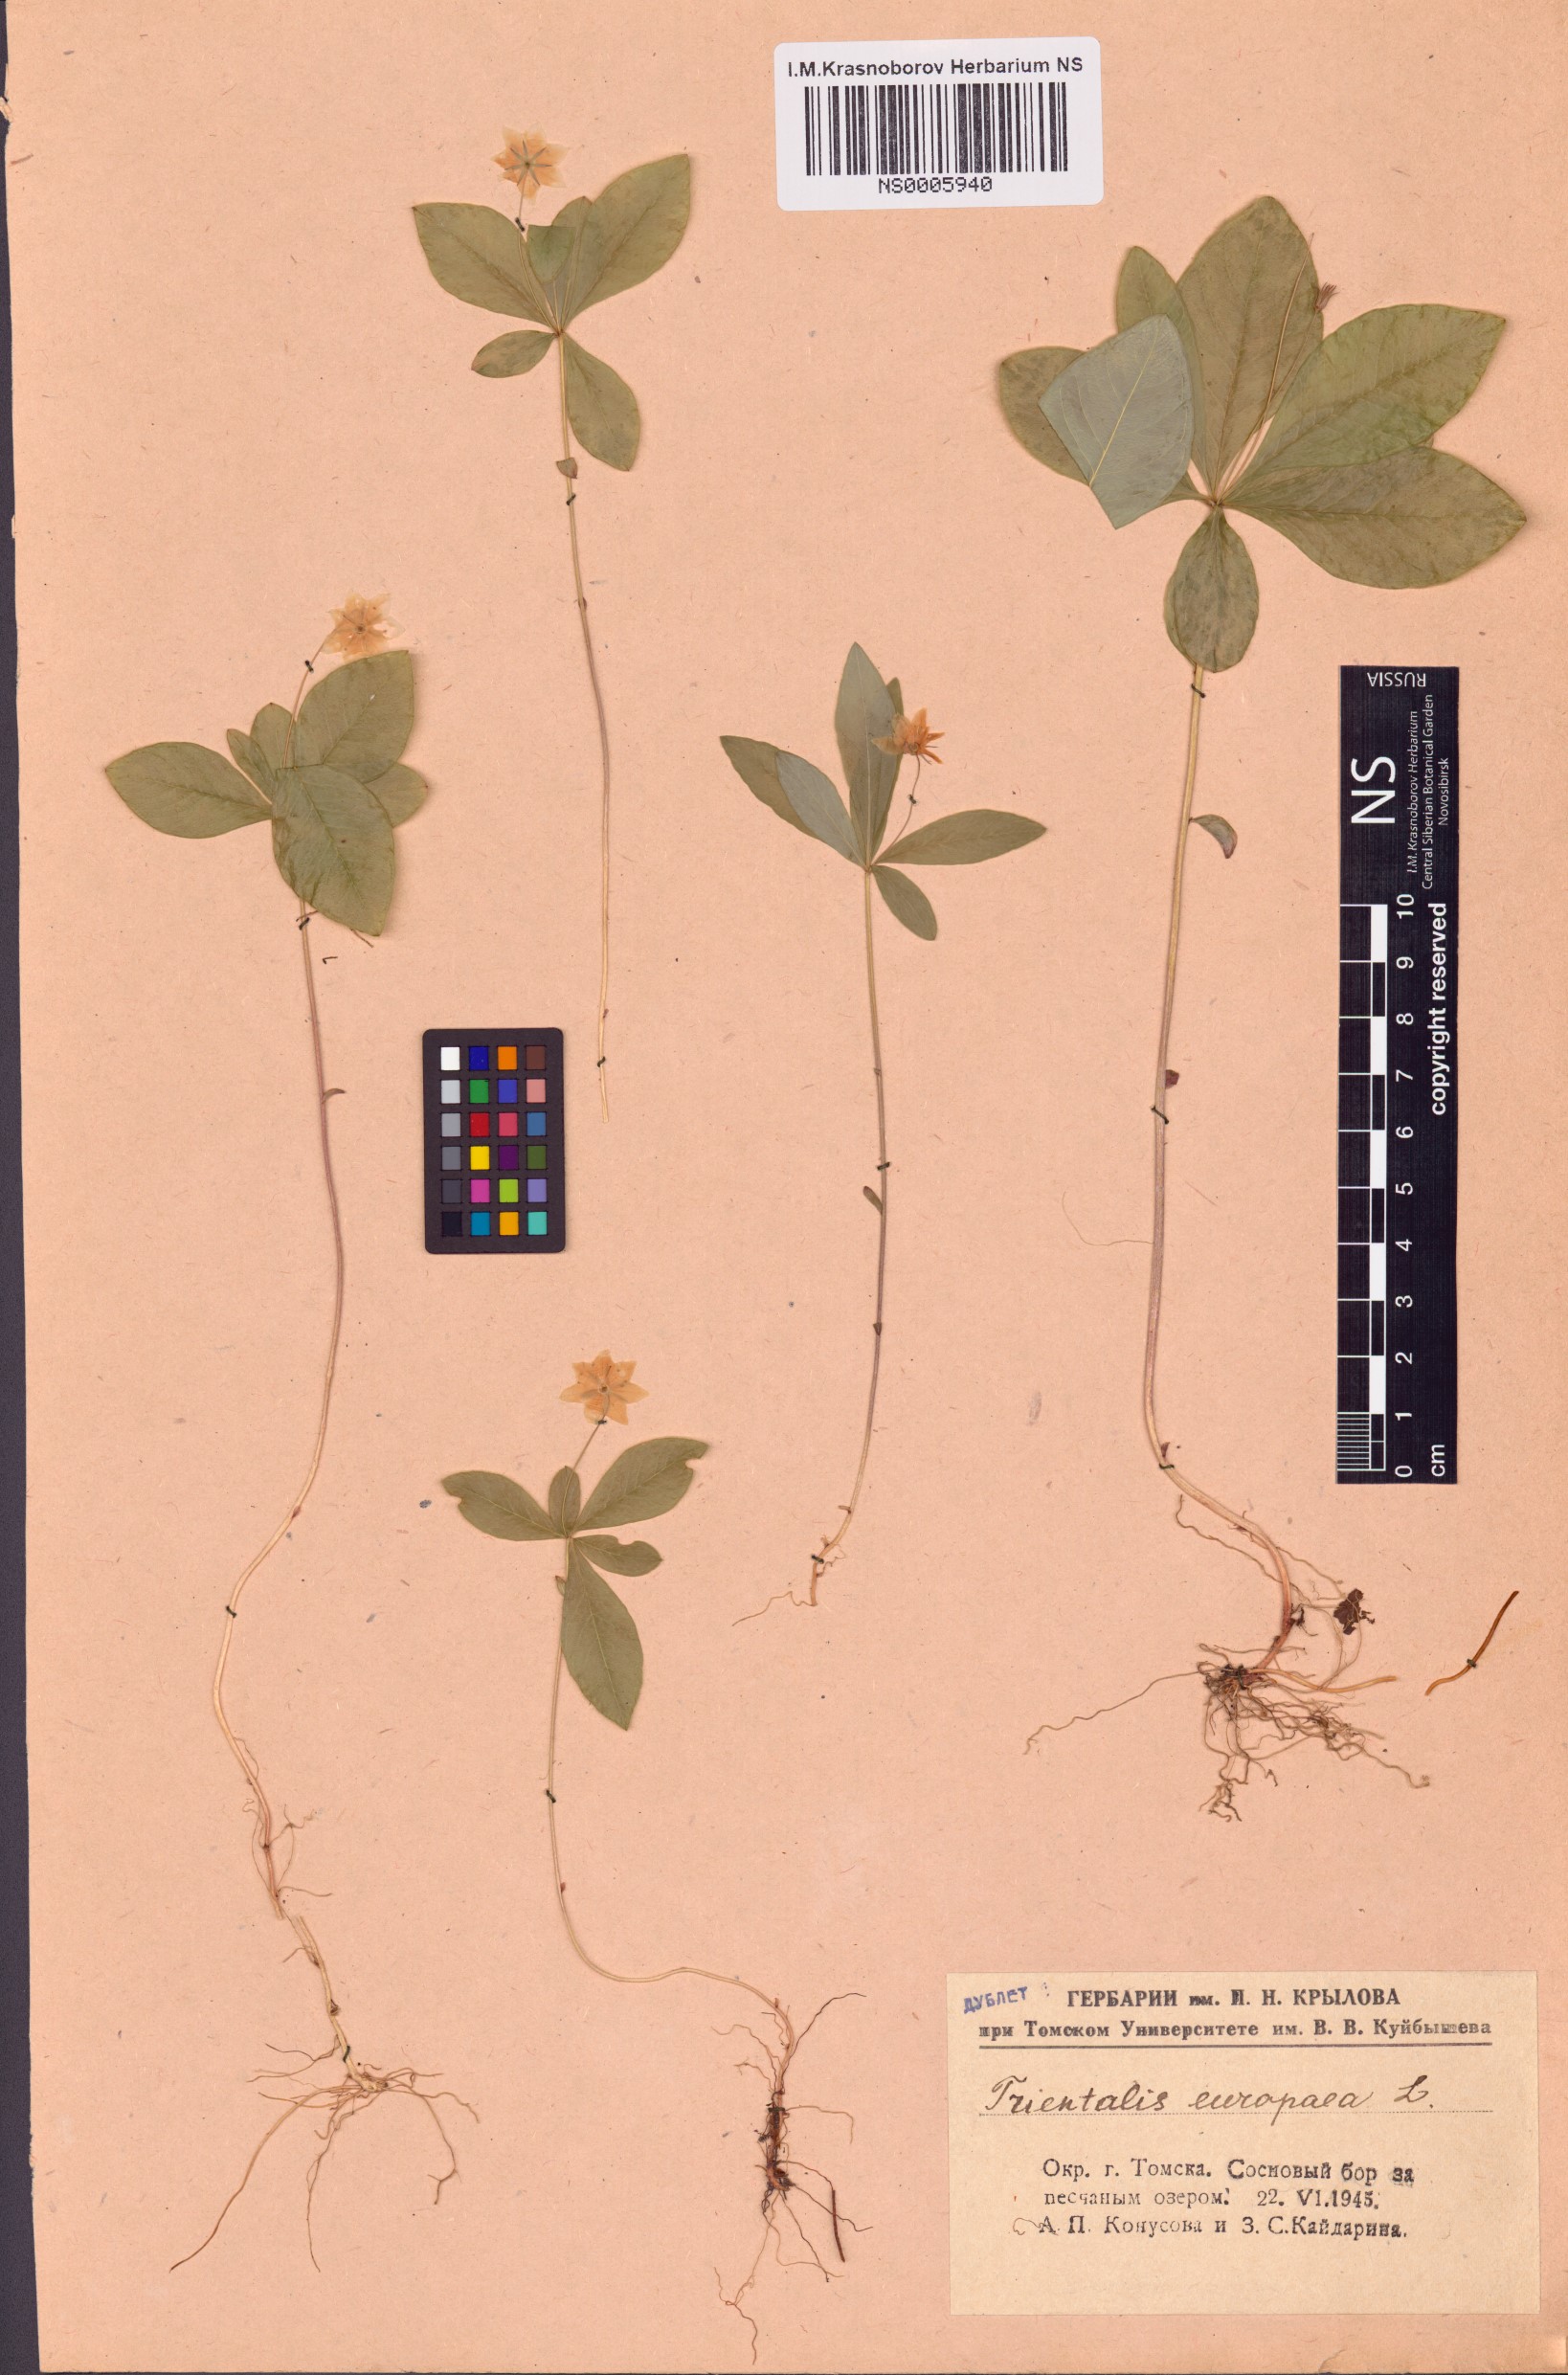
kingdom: Plantae
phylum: Tracheophyta
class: Magnoliopsida
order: Ericales
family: Primulaceae
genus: Lysimachia
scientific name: Lysimachia europaea
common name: Arctic starflower
